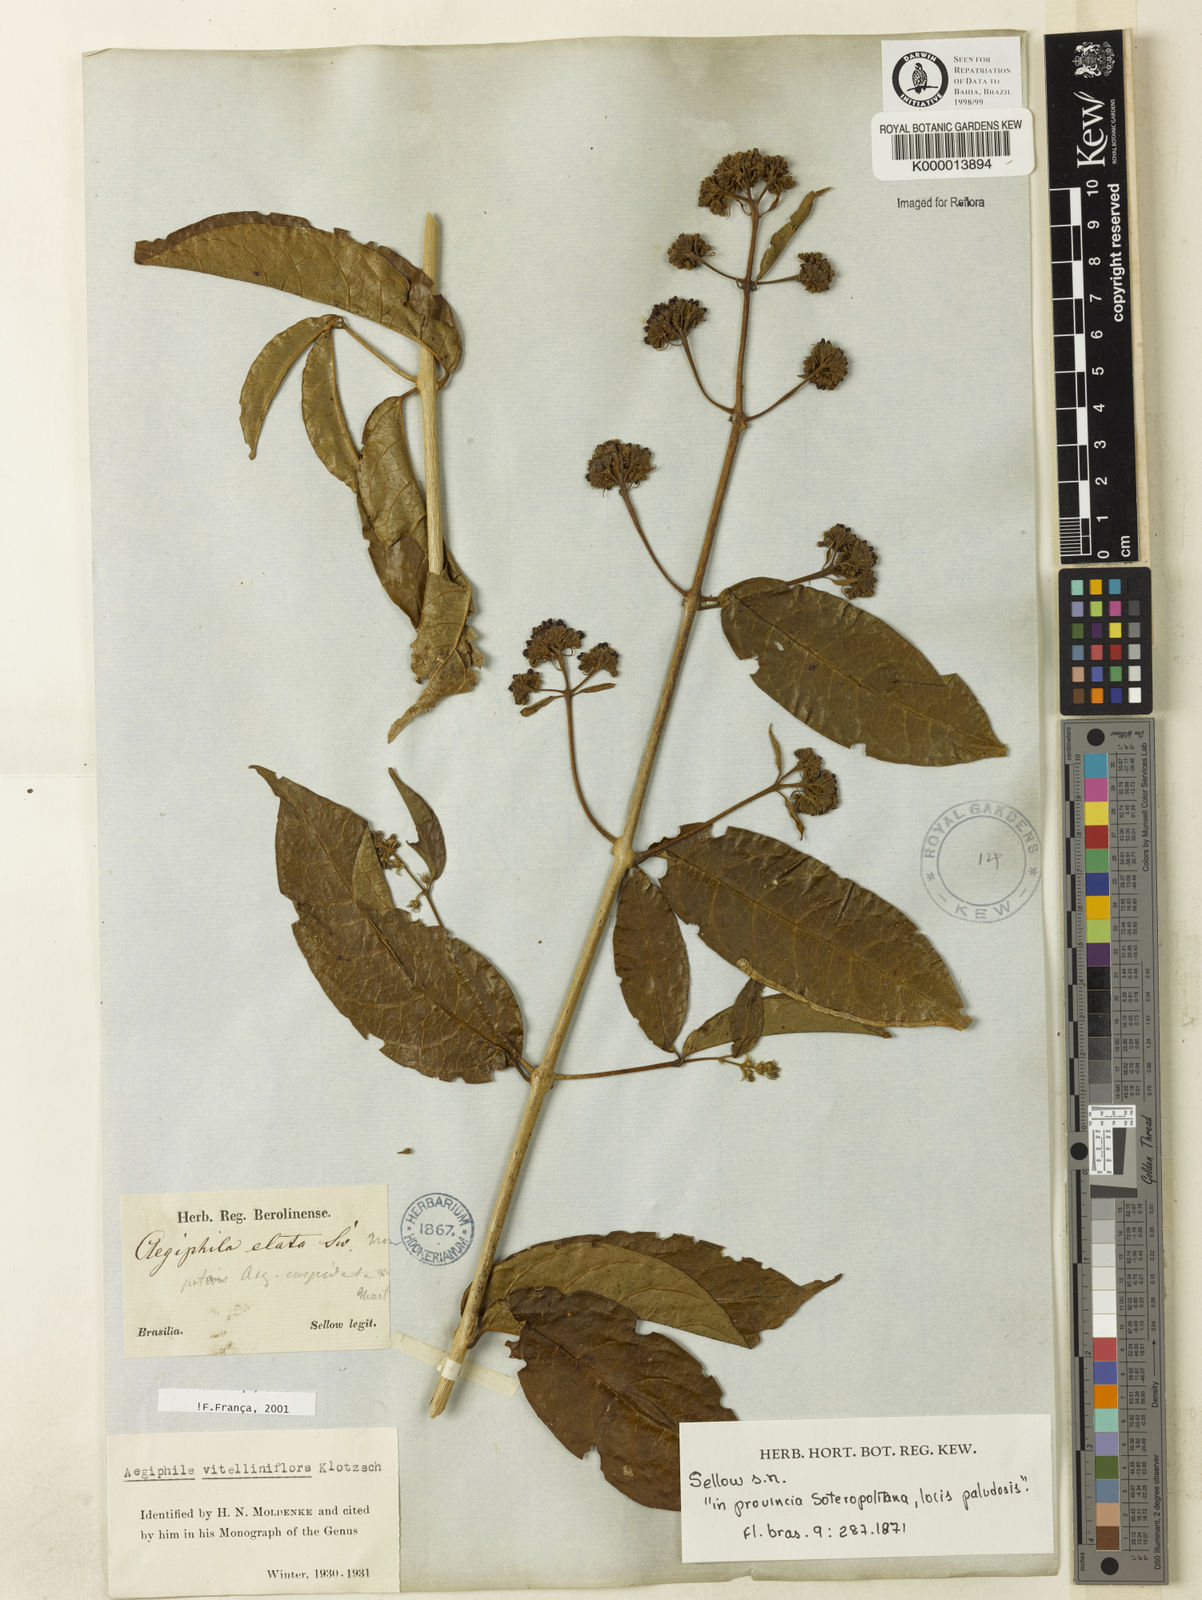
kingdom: Plantae
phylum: Tracheophyta
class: Magnoliopsida
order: Lamiales
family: Lamiaceae
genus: Aegiphila
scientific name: Aegiphila vitelliniflora
